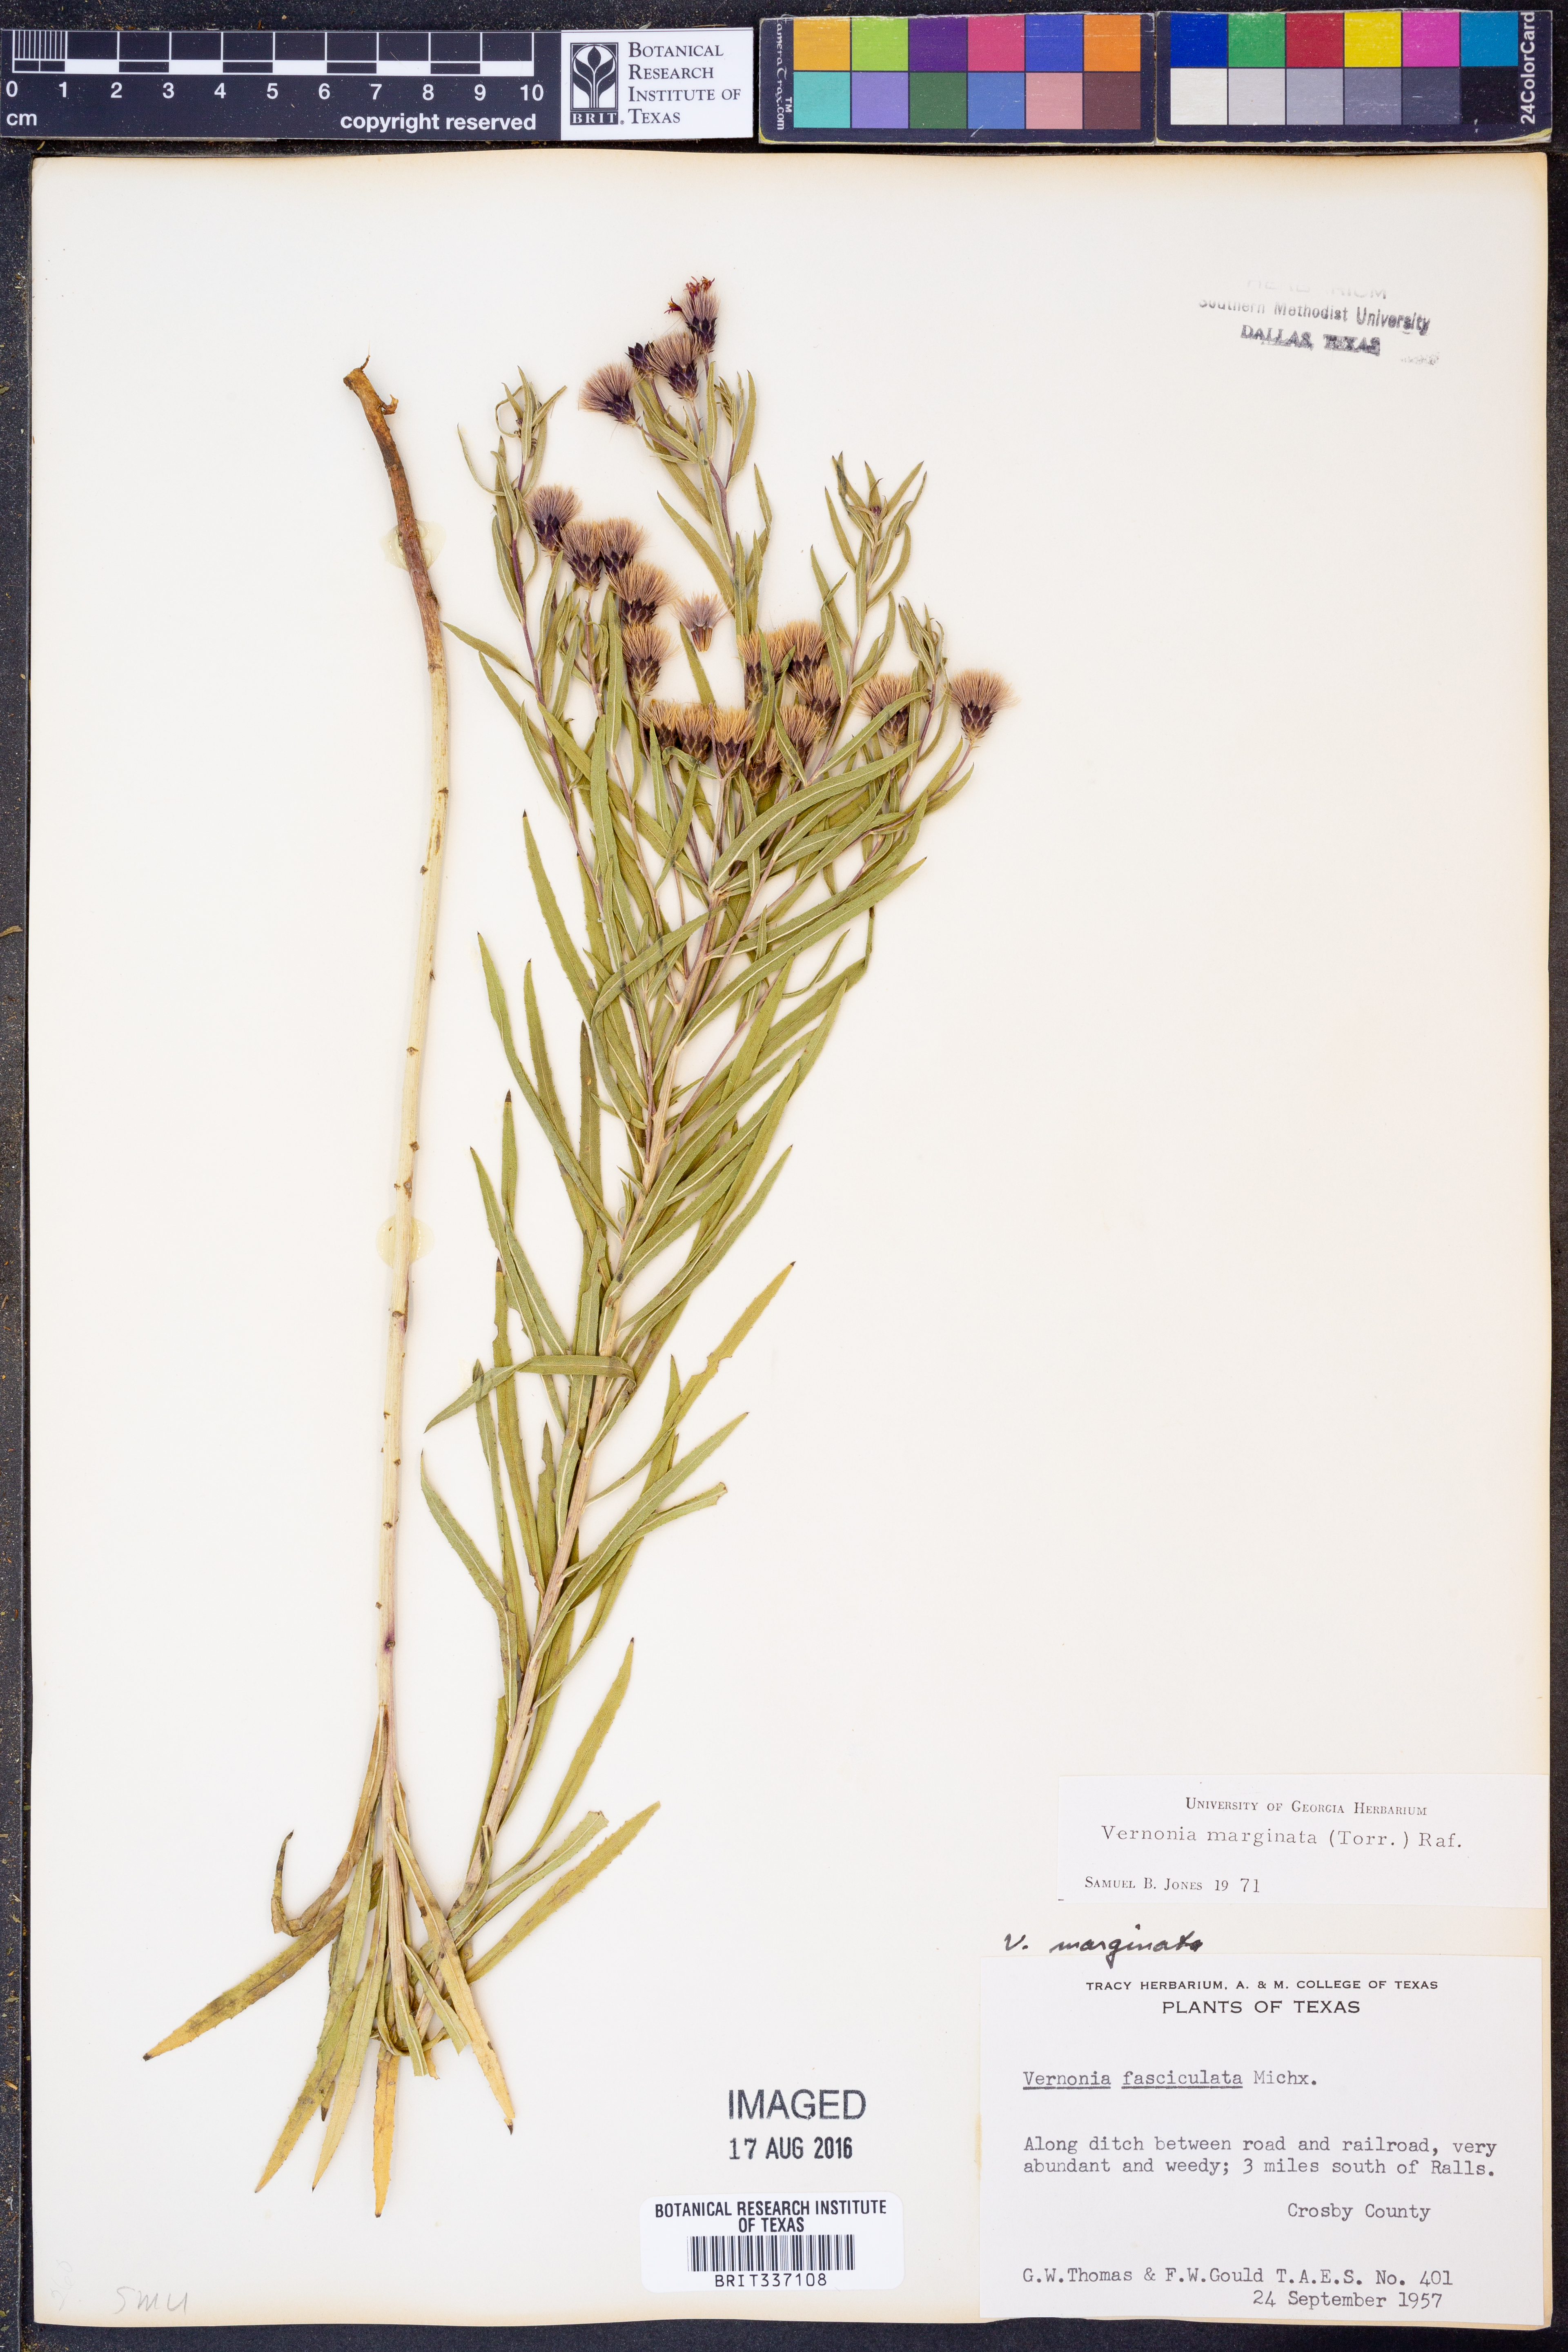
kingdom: Plantae
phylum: Tracheophyta
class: Magnoliopsida
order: Asterales
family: Asteraceae
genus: Vernonia
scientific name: Vernonia marginata
